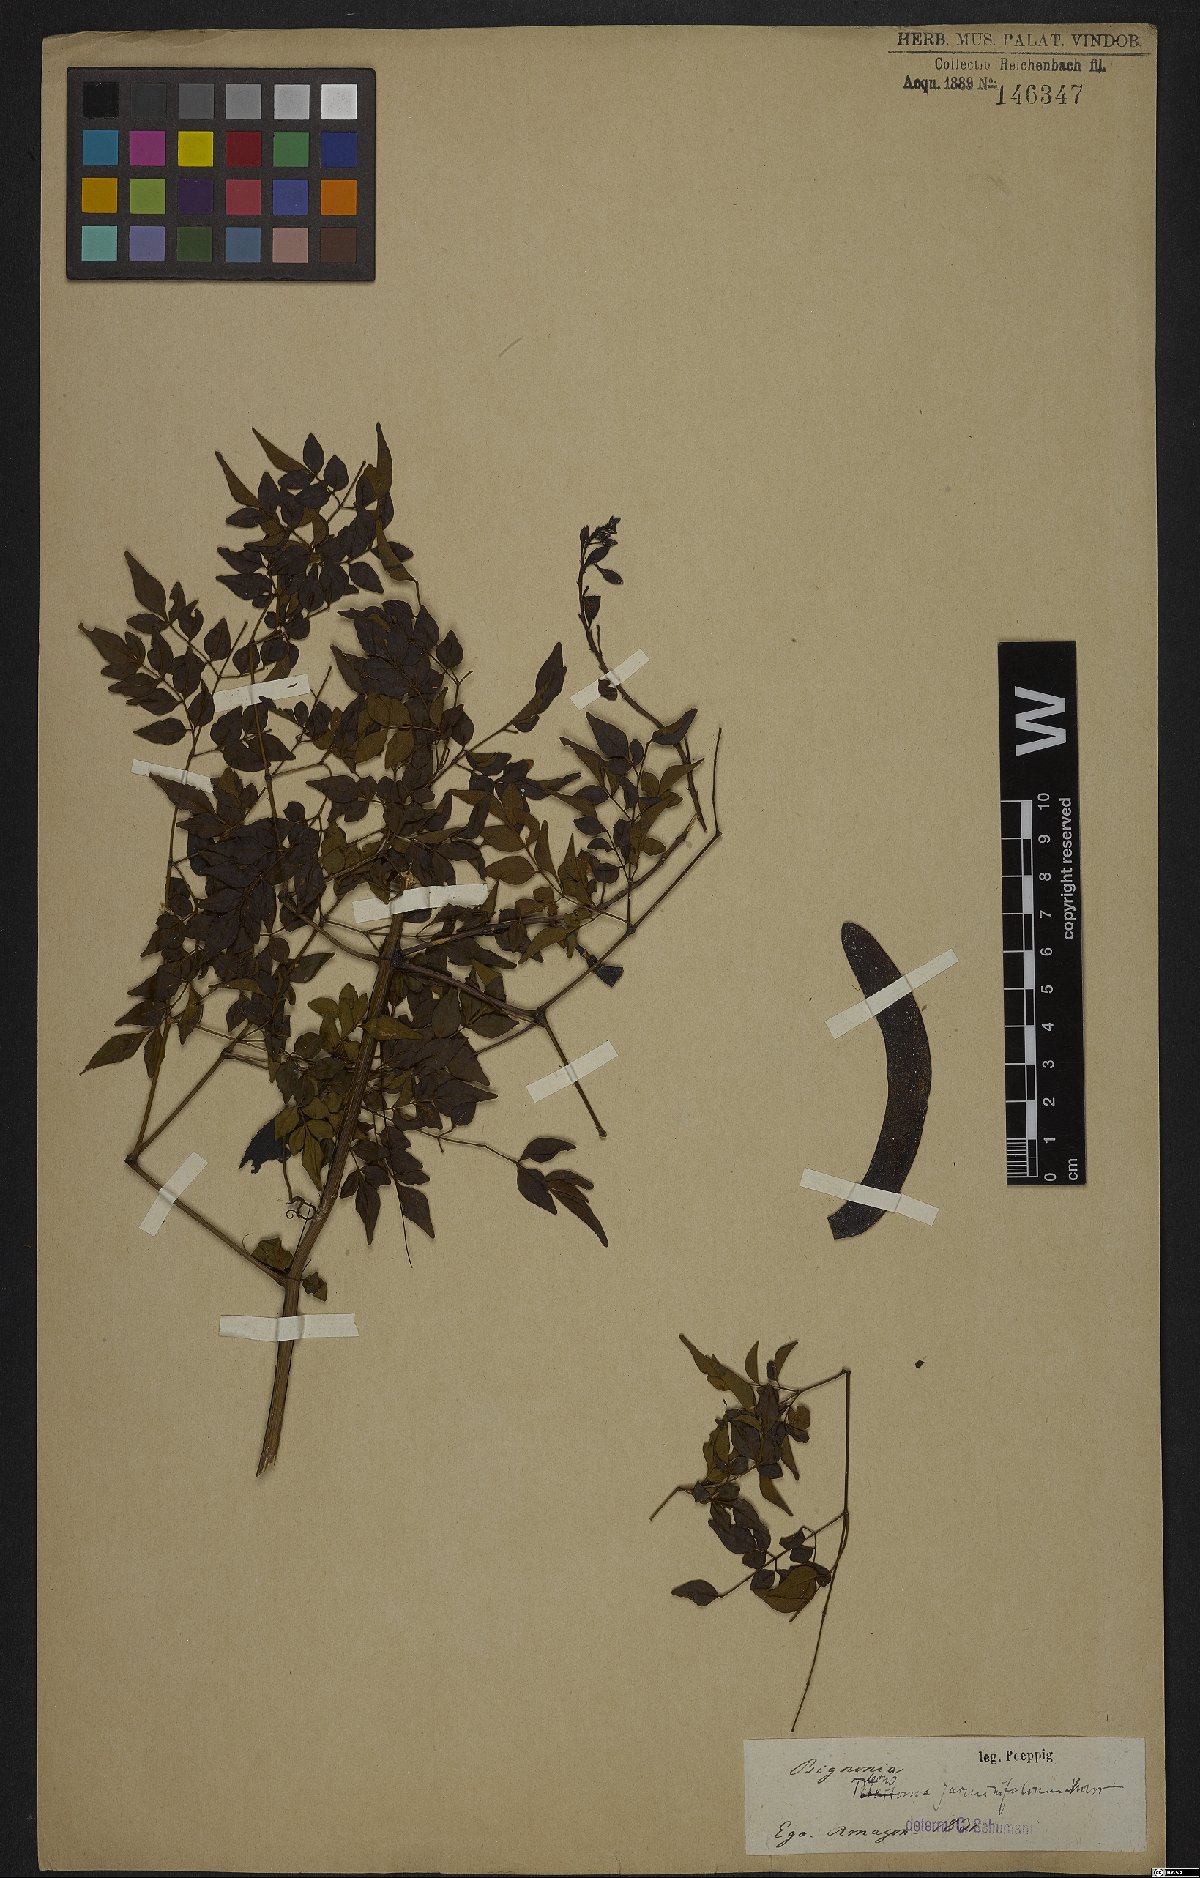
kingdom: Plantae
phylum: Tracheophyta
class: Magnoliopsida
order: Lamiales
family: Bignoniaceae
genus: Pleonotoma
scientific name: Pleonotoma jasminifolia
